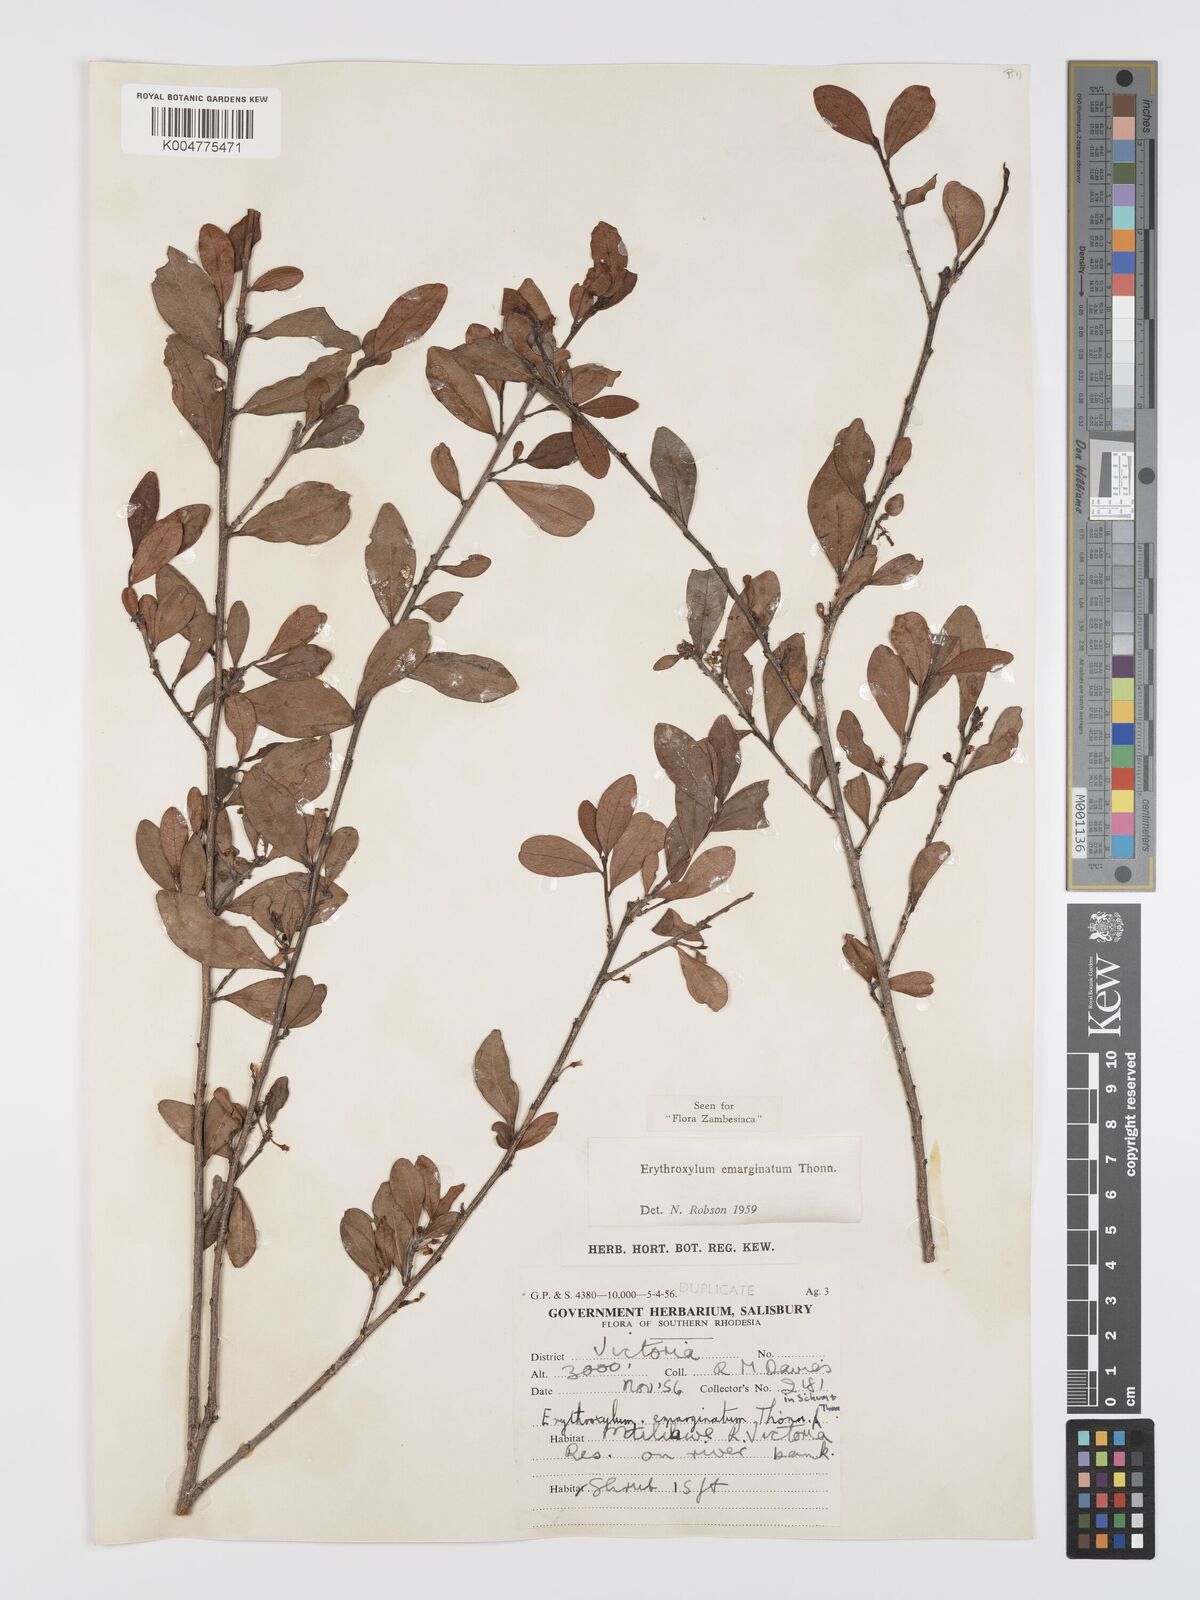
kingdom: Plantae
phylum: Tracheophyta
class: Magnoliopsida
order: Malpighiales
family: Erythroxylaceae
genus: Erythroxylum
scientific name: Erythroxylum emarginatum
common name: African coca-tree
